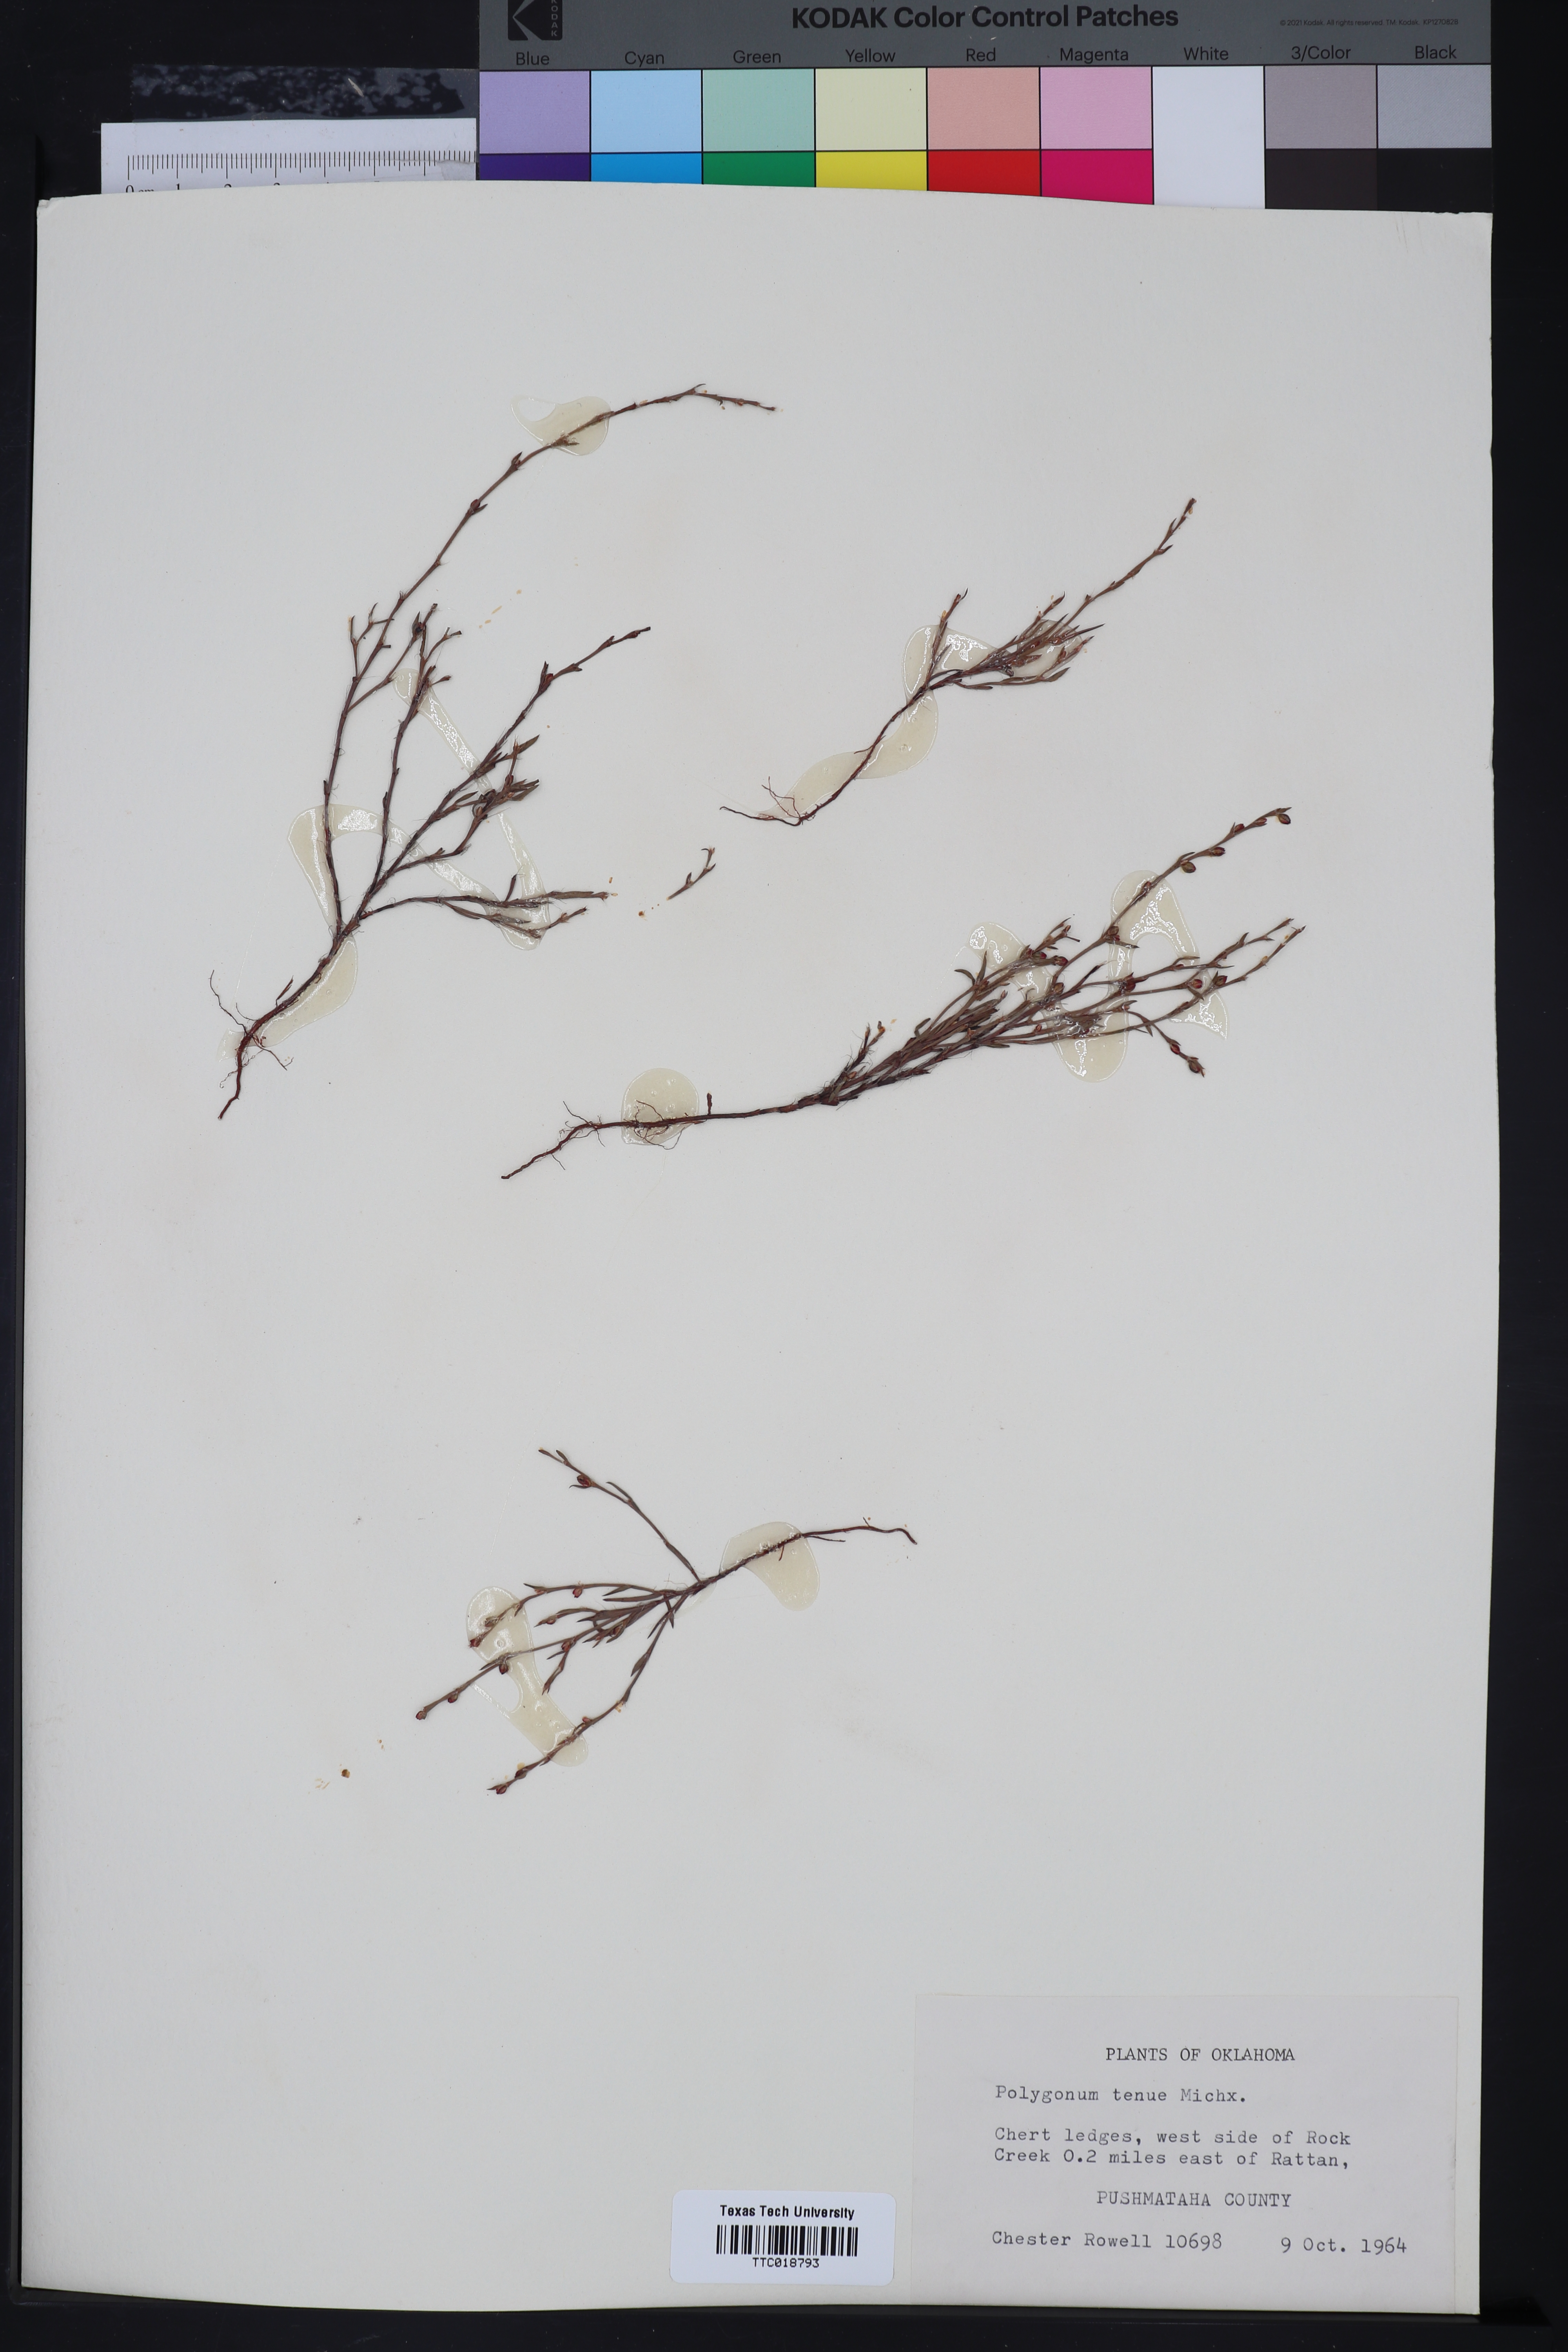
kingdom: Plantae
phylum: Tracheophyta
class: Magnoliopsida
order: Caryophyllales
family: Polygonaceae
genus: Polygonum
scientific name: Polygonum tenue
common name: Pleat-leaved knotweed
